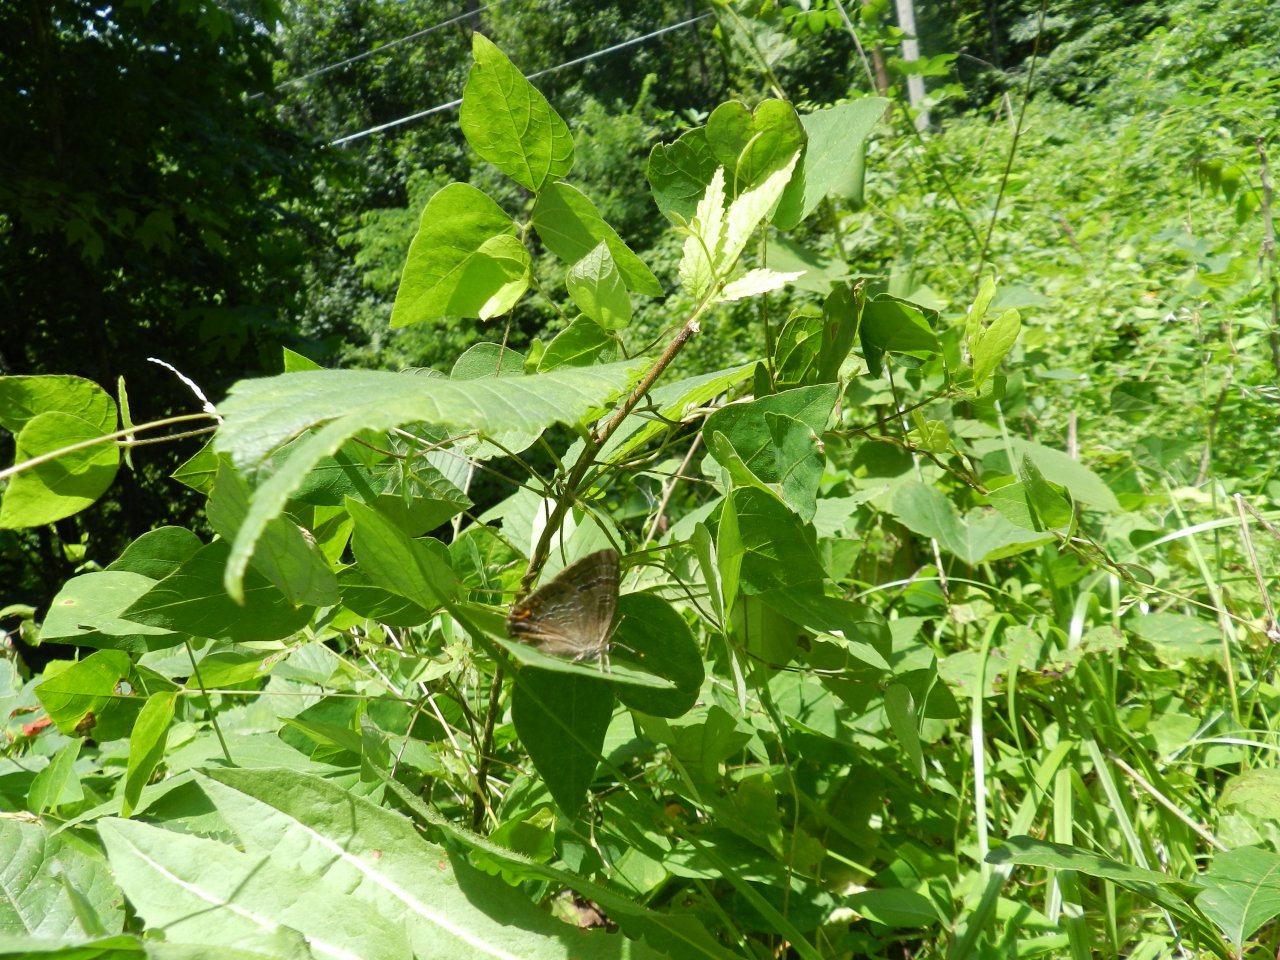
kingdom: Animalia
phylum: Arthropoda
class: Insecta
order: Lepidoptera
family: Lycaenidae
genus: Satyrium
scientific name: Satyrium calanus
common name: Banded Hairstreak
